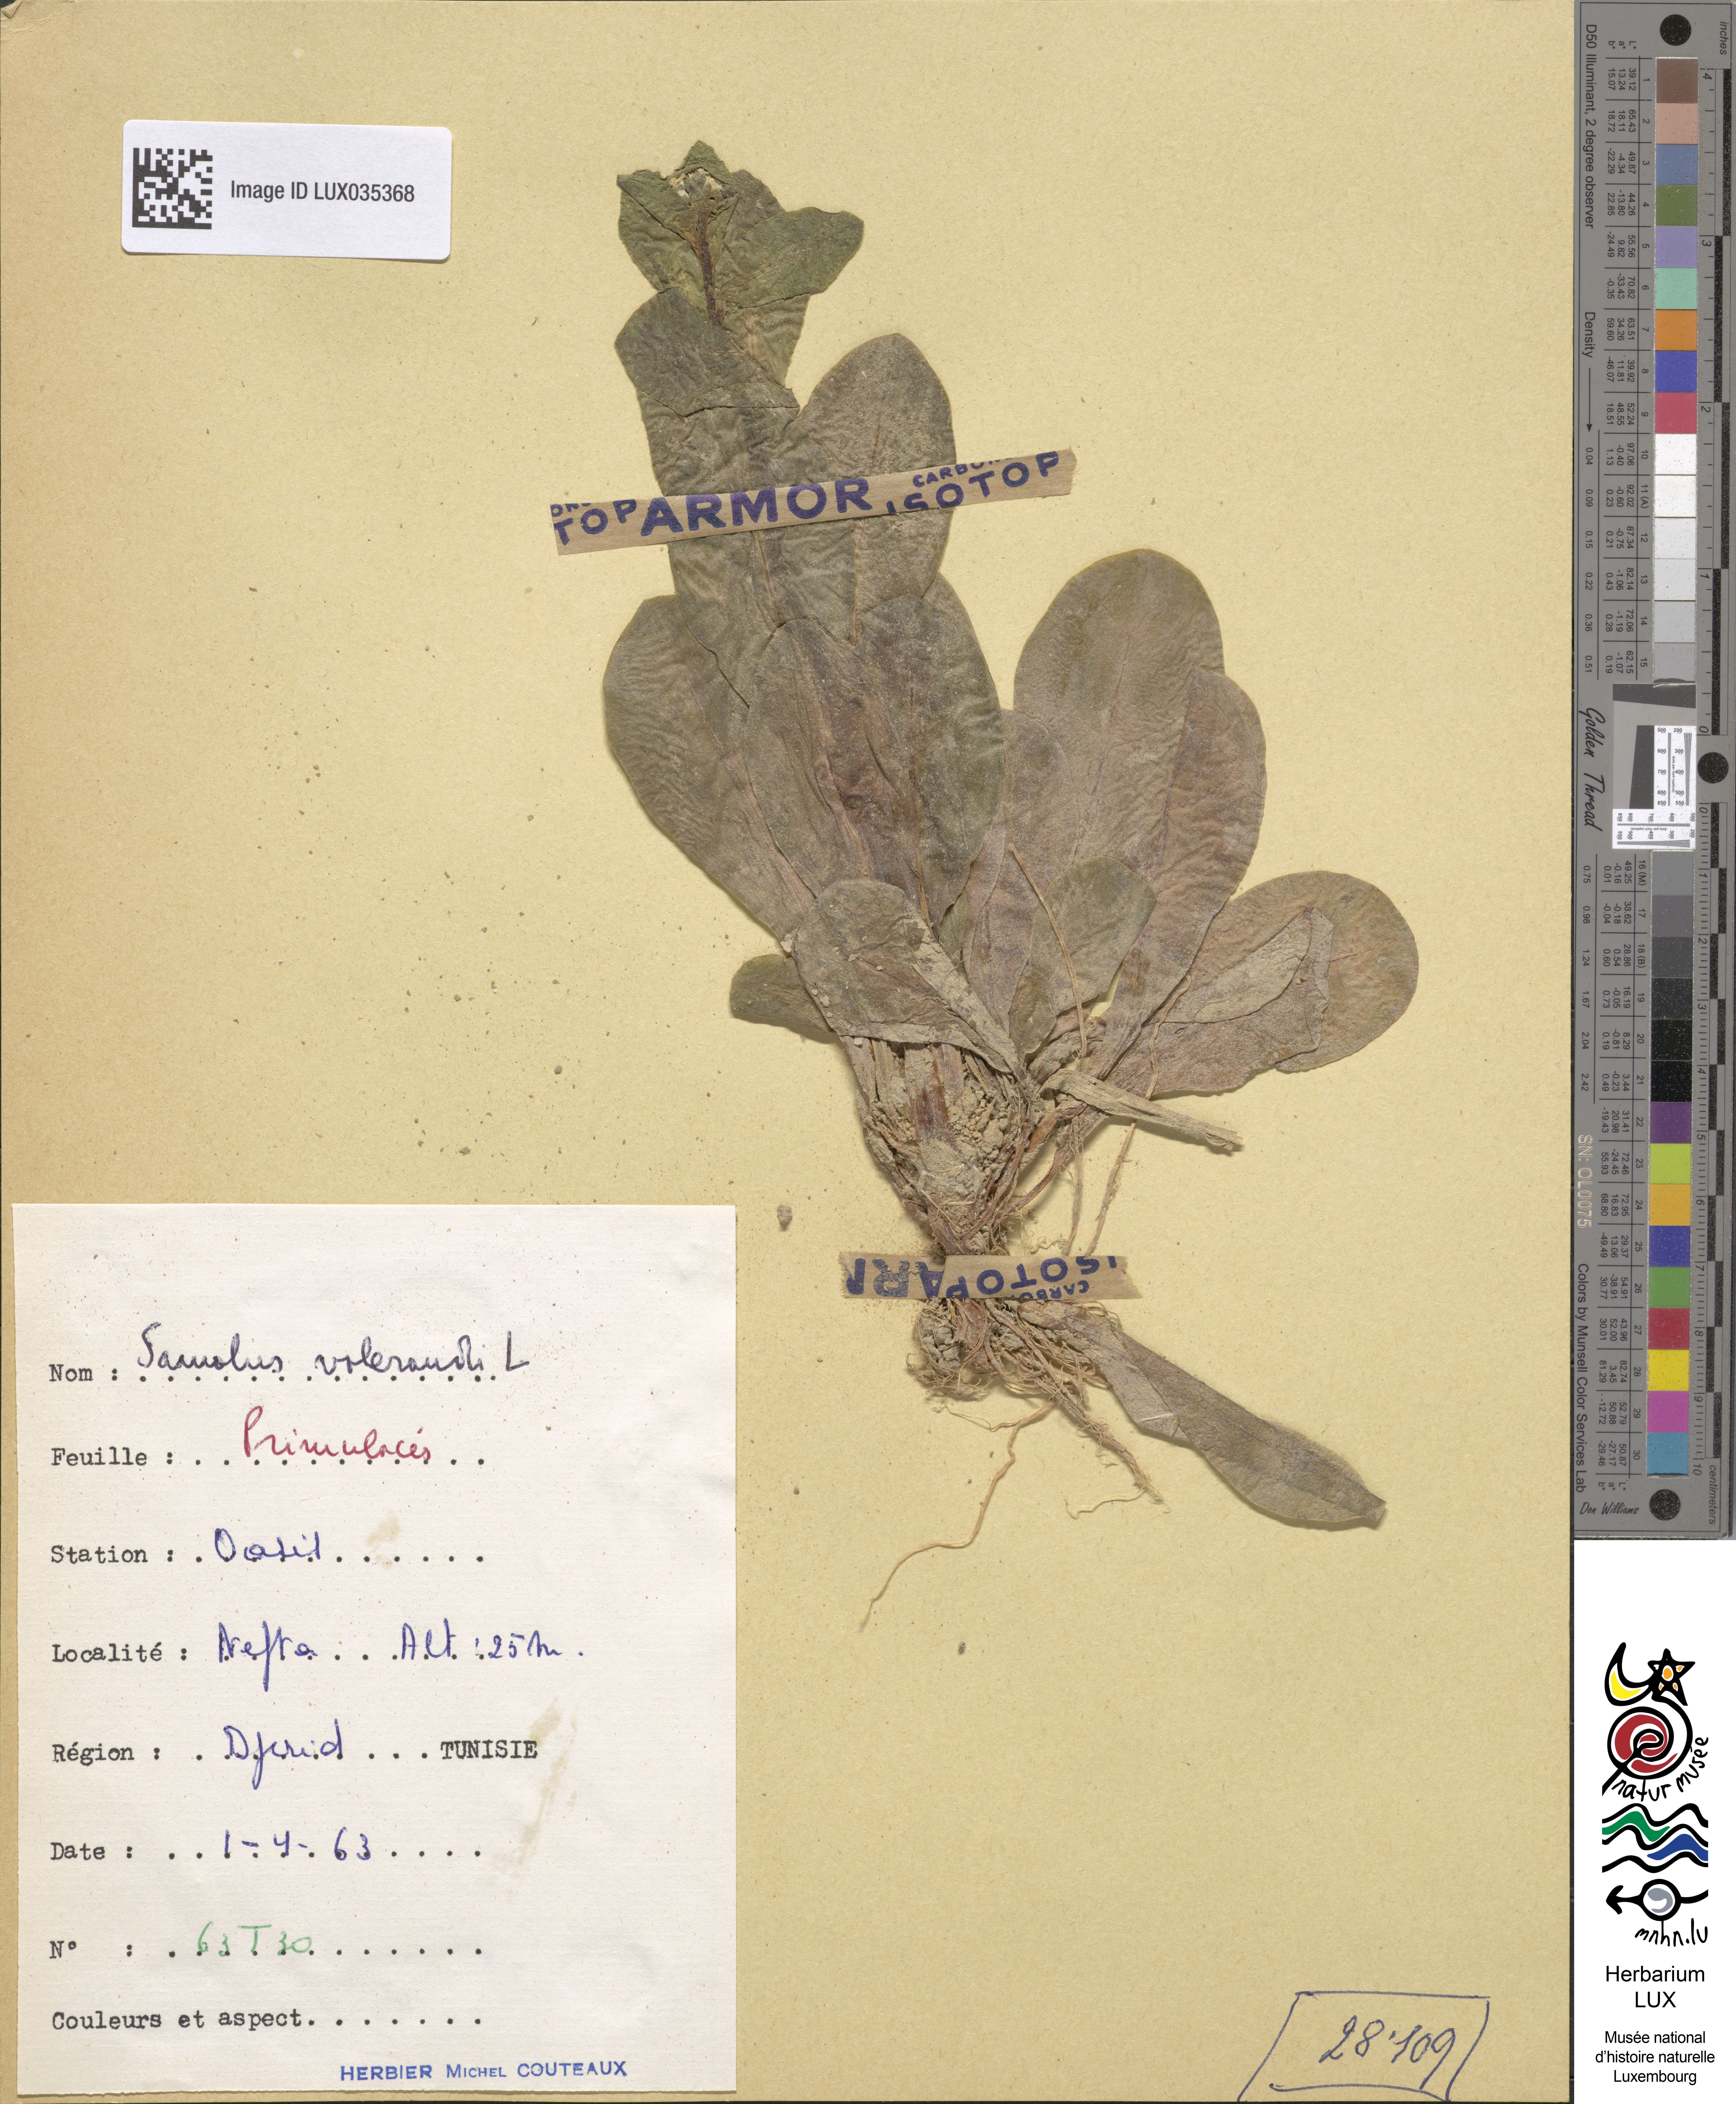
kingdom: Plantae
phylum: Tracheophyta
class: Magnoliopsida
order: Ericales
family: Primulaceae
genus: Samolus
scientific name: Samolus valerandi
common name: Brookweed
